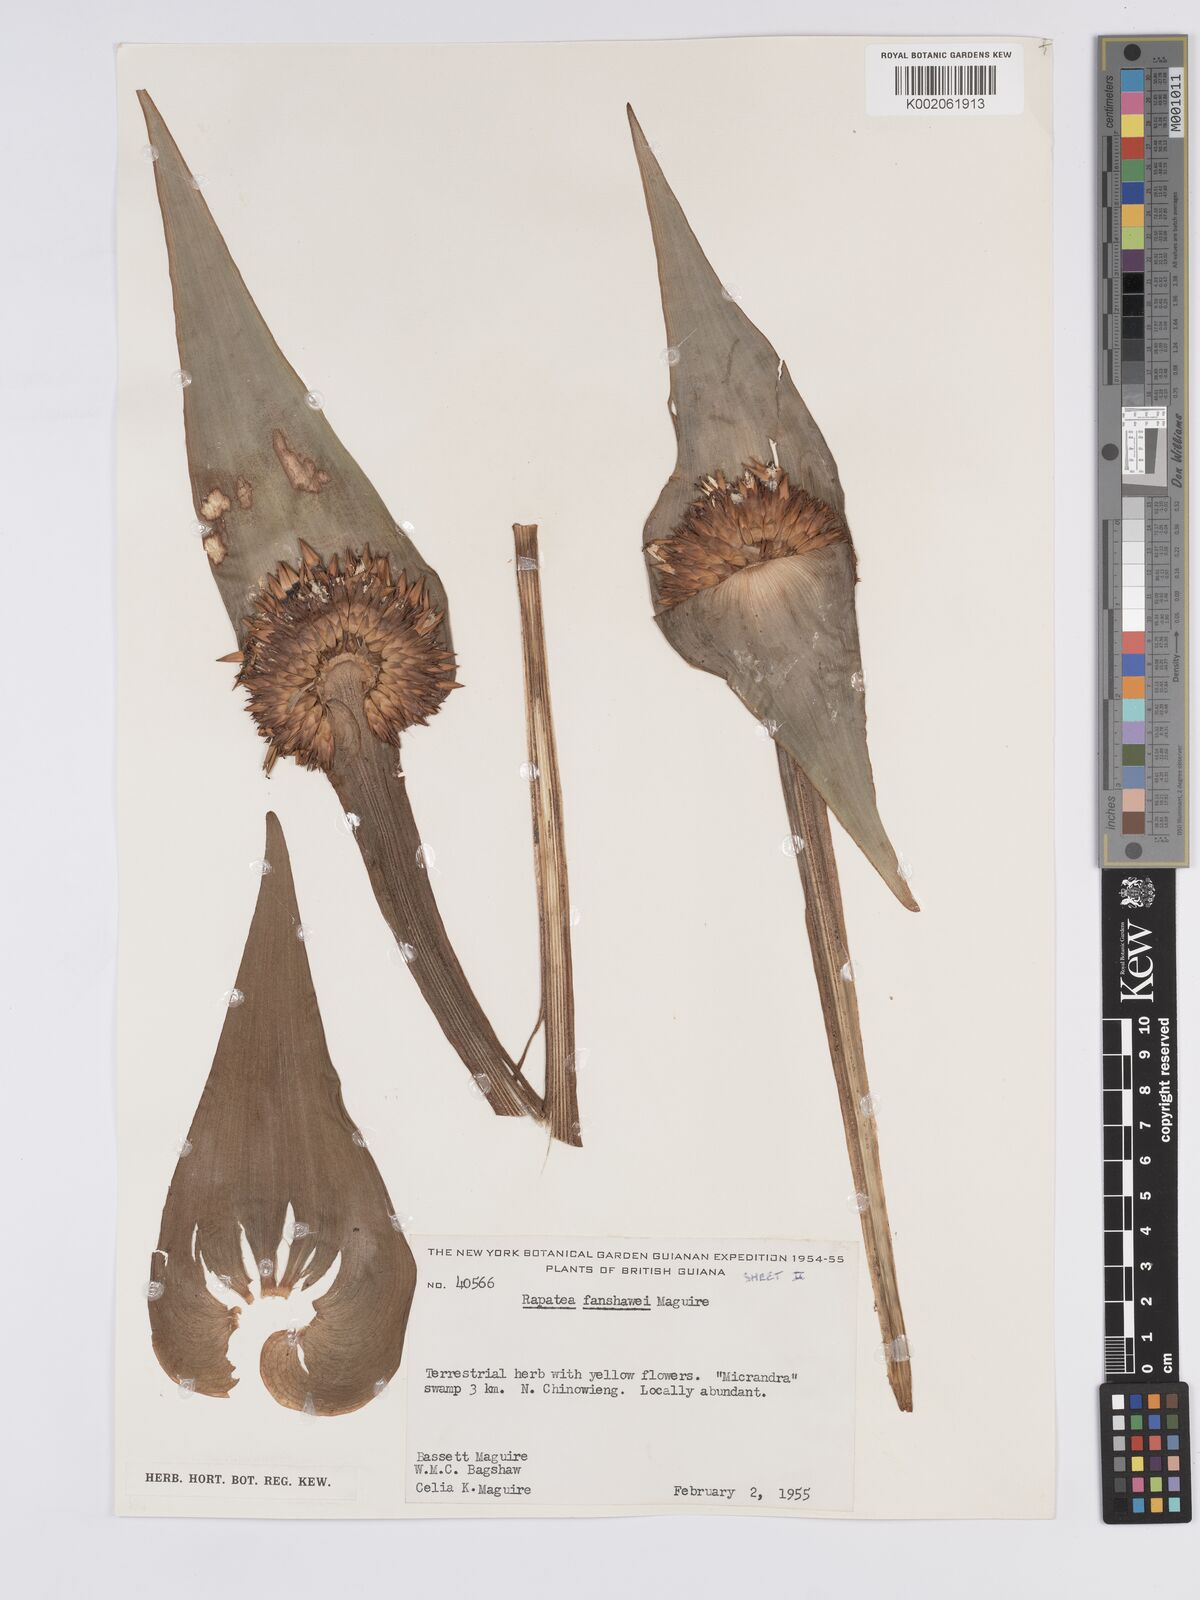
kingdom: Plantae
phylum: Tracheophyta
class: Liliopsida
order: Poales
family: Rapateaceae
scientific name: Rapateaceae
